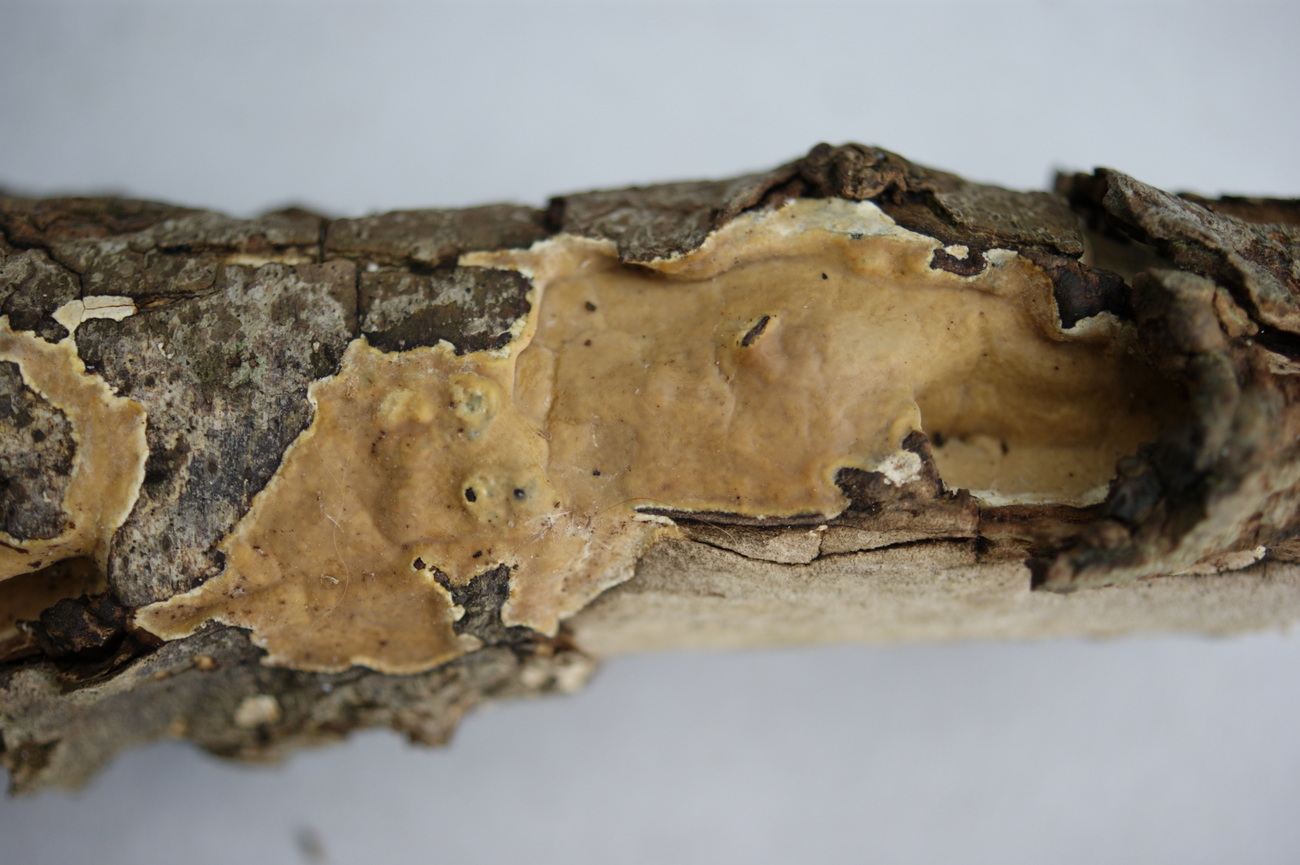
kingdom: Fungi
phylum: Basidiomycota
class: Agaricomycetes
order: Russulales
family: Peniophoraceae
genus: Scytinostroma
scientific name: Scytinostroma hemidichophyticum
